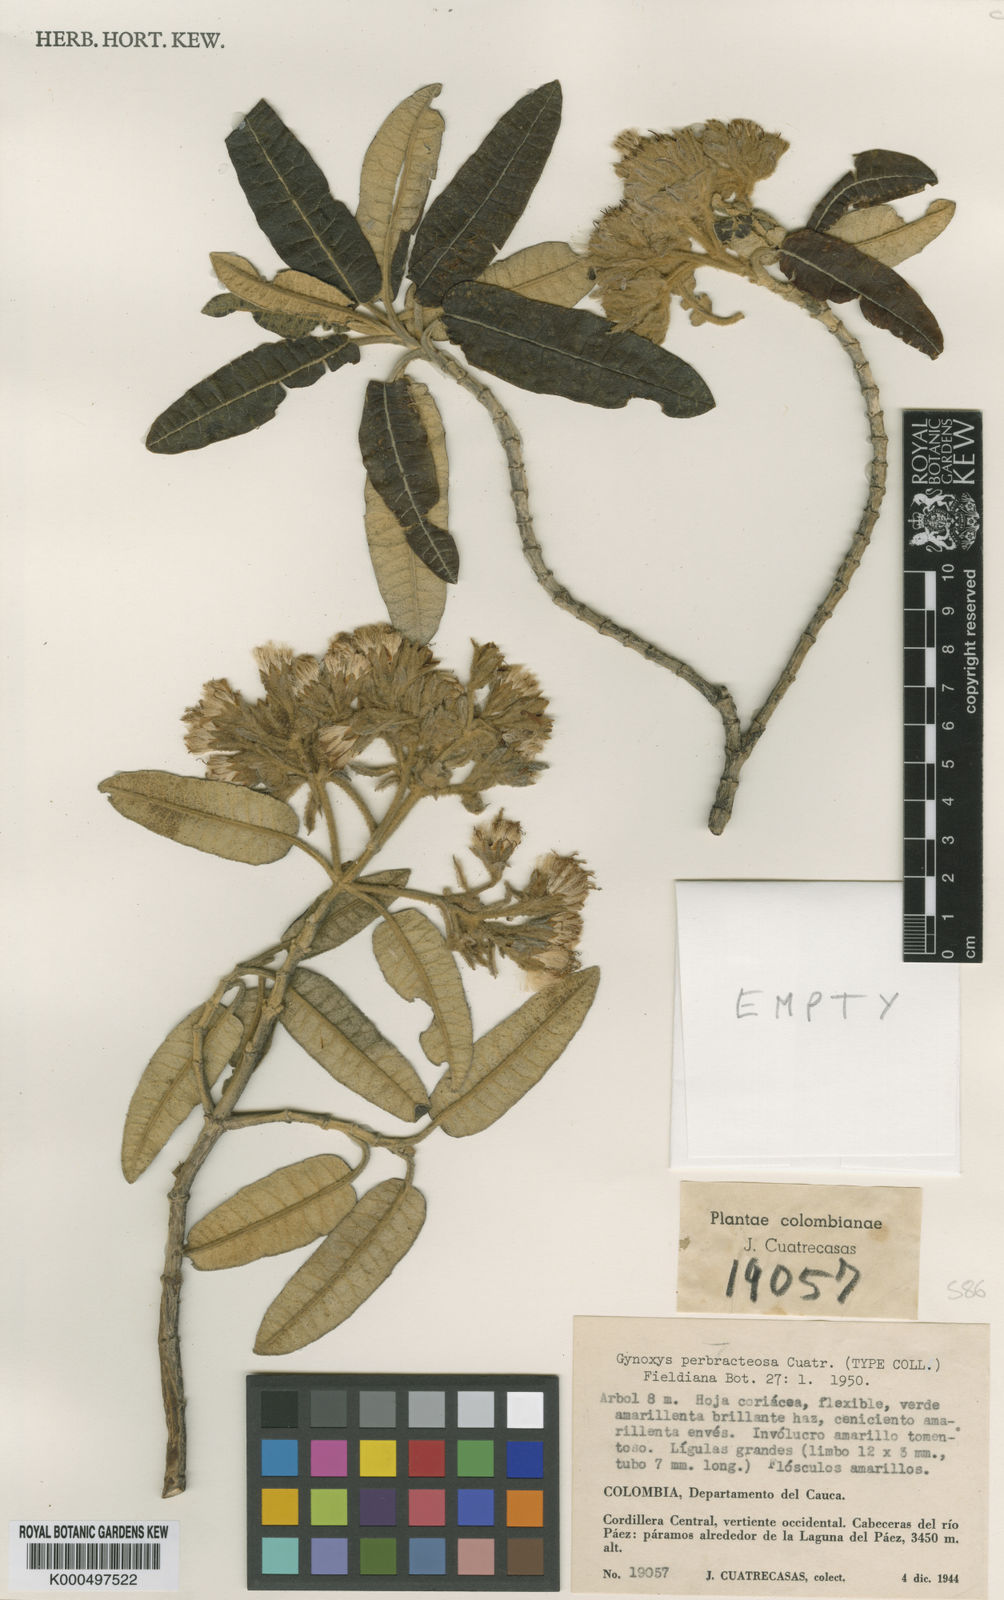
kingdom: Plantae
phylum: Tracheophyta
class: Magnoliopsida
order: Asterales
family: Asteraceae
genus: Gynoxys
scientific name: Gynoxys
